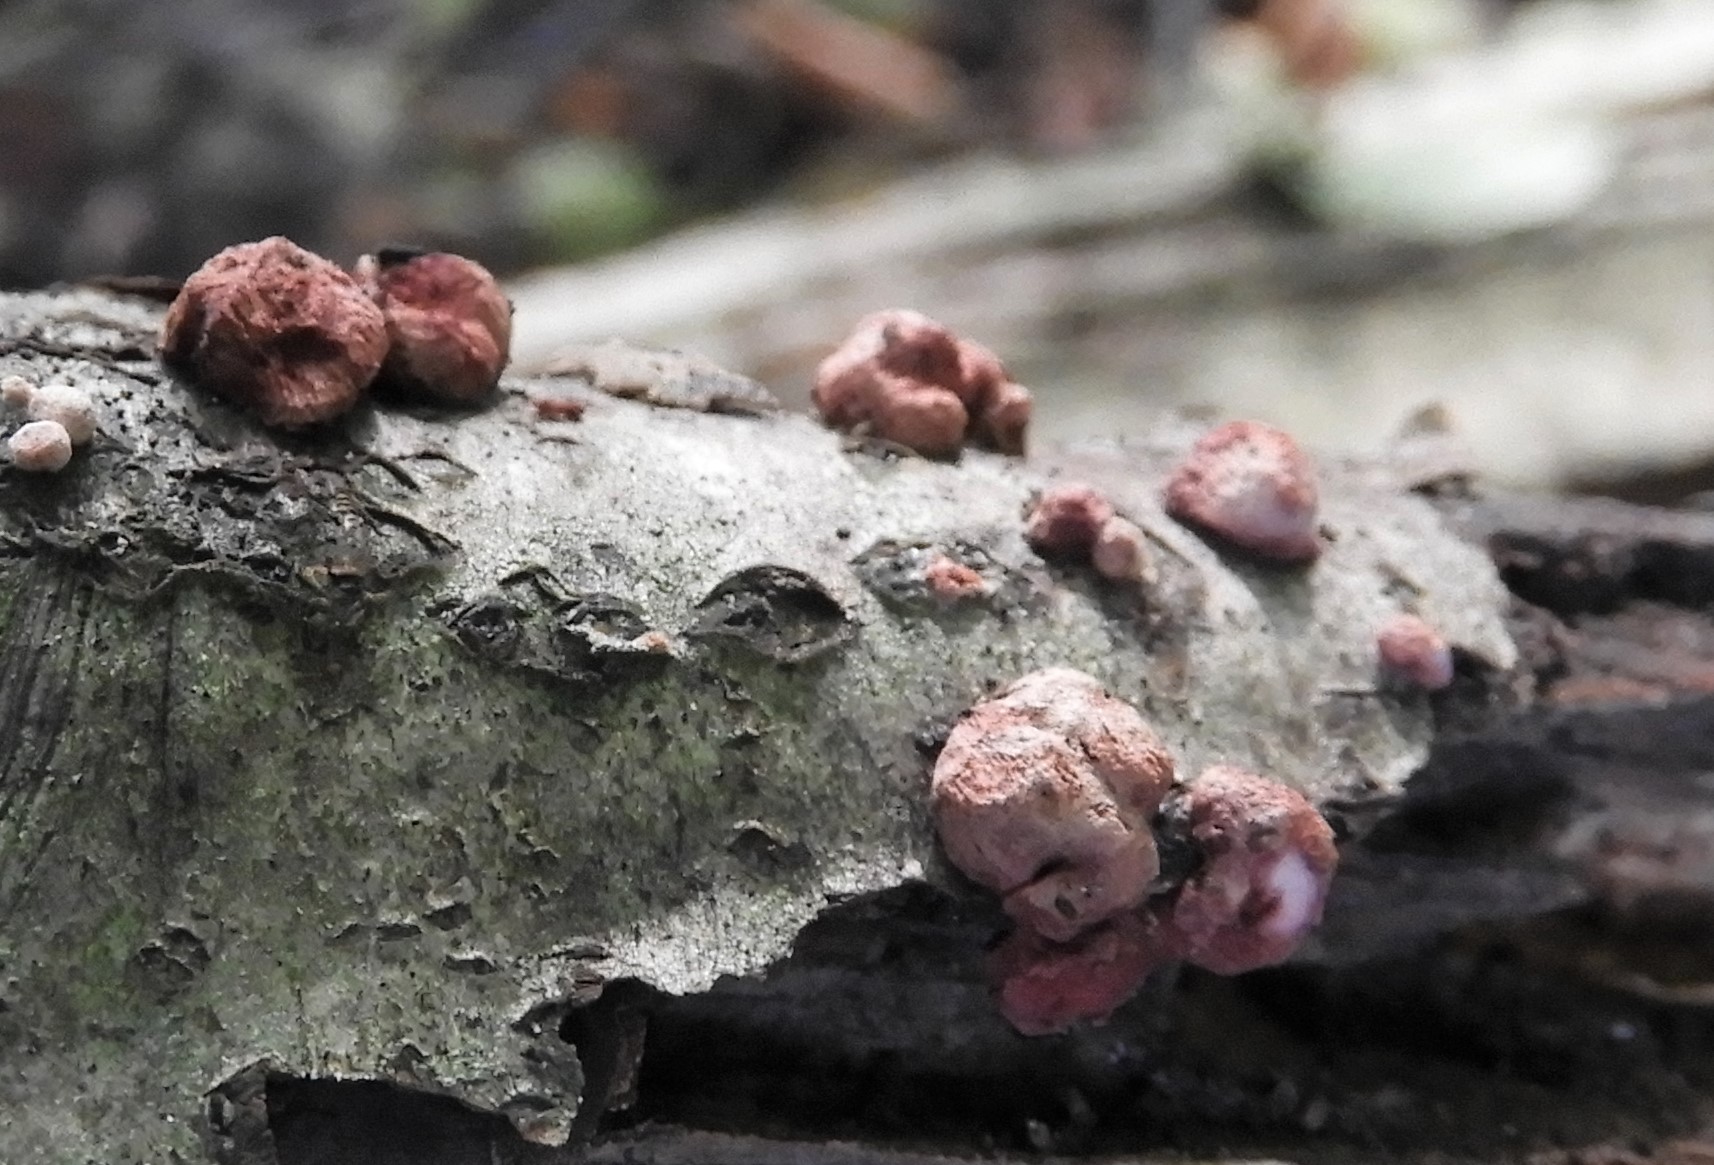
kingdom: Fungi
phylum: Ascomycota
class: Sordariomycetes
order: Hypocreales
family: Hypocreaceae
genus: Trichoderma
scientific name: Trichoderma europaeum
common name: rosabrun kødkerne
